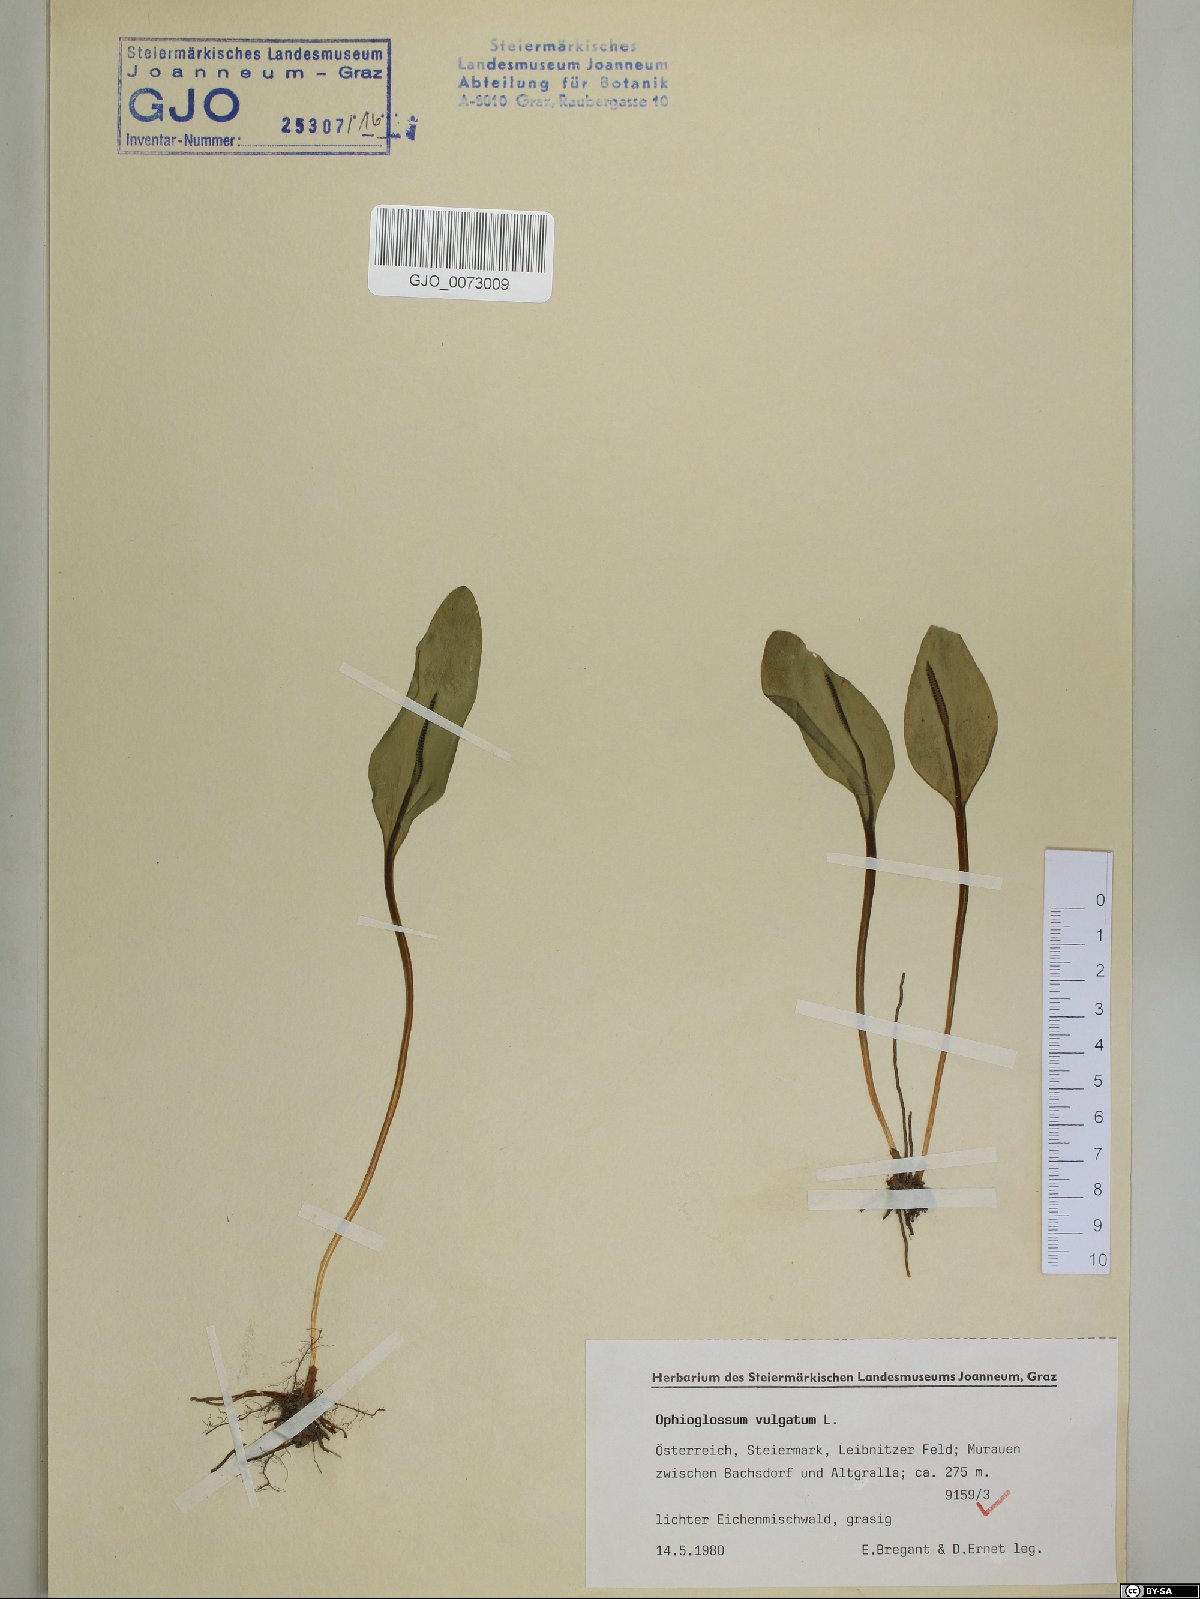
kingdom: Plantae
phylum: Tracheophyta
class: Polypodiopsida
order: Ophioglossales
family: Ophioglossaceae
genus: Ophioglossum
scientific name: Ophioglossum vulgatum
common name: Adder's-tongue
